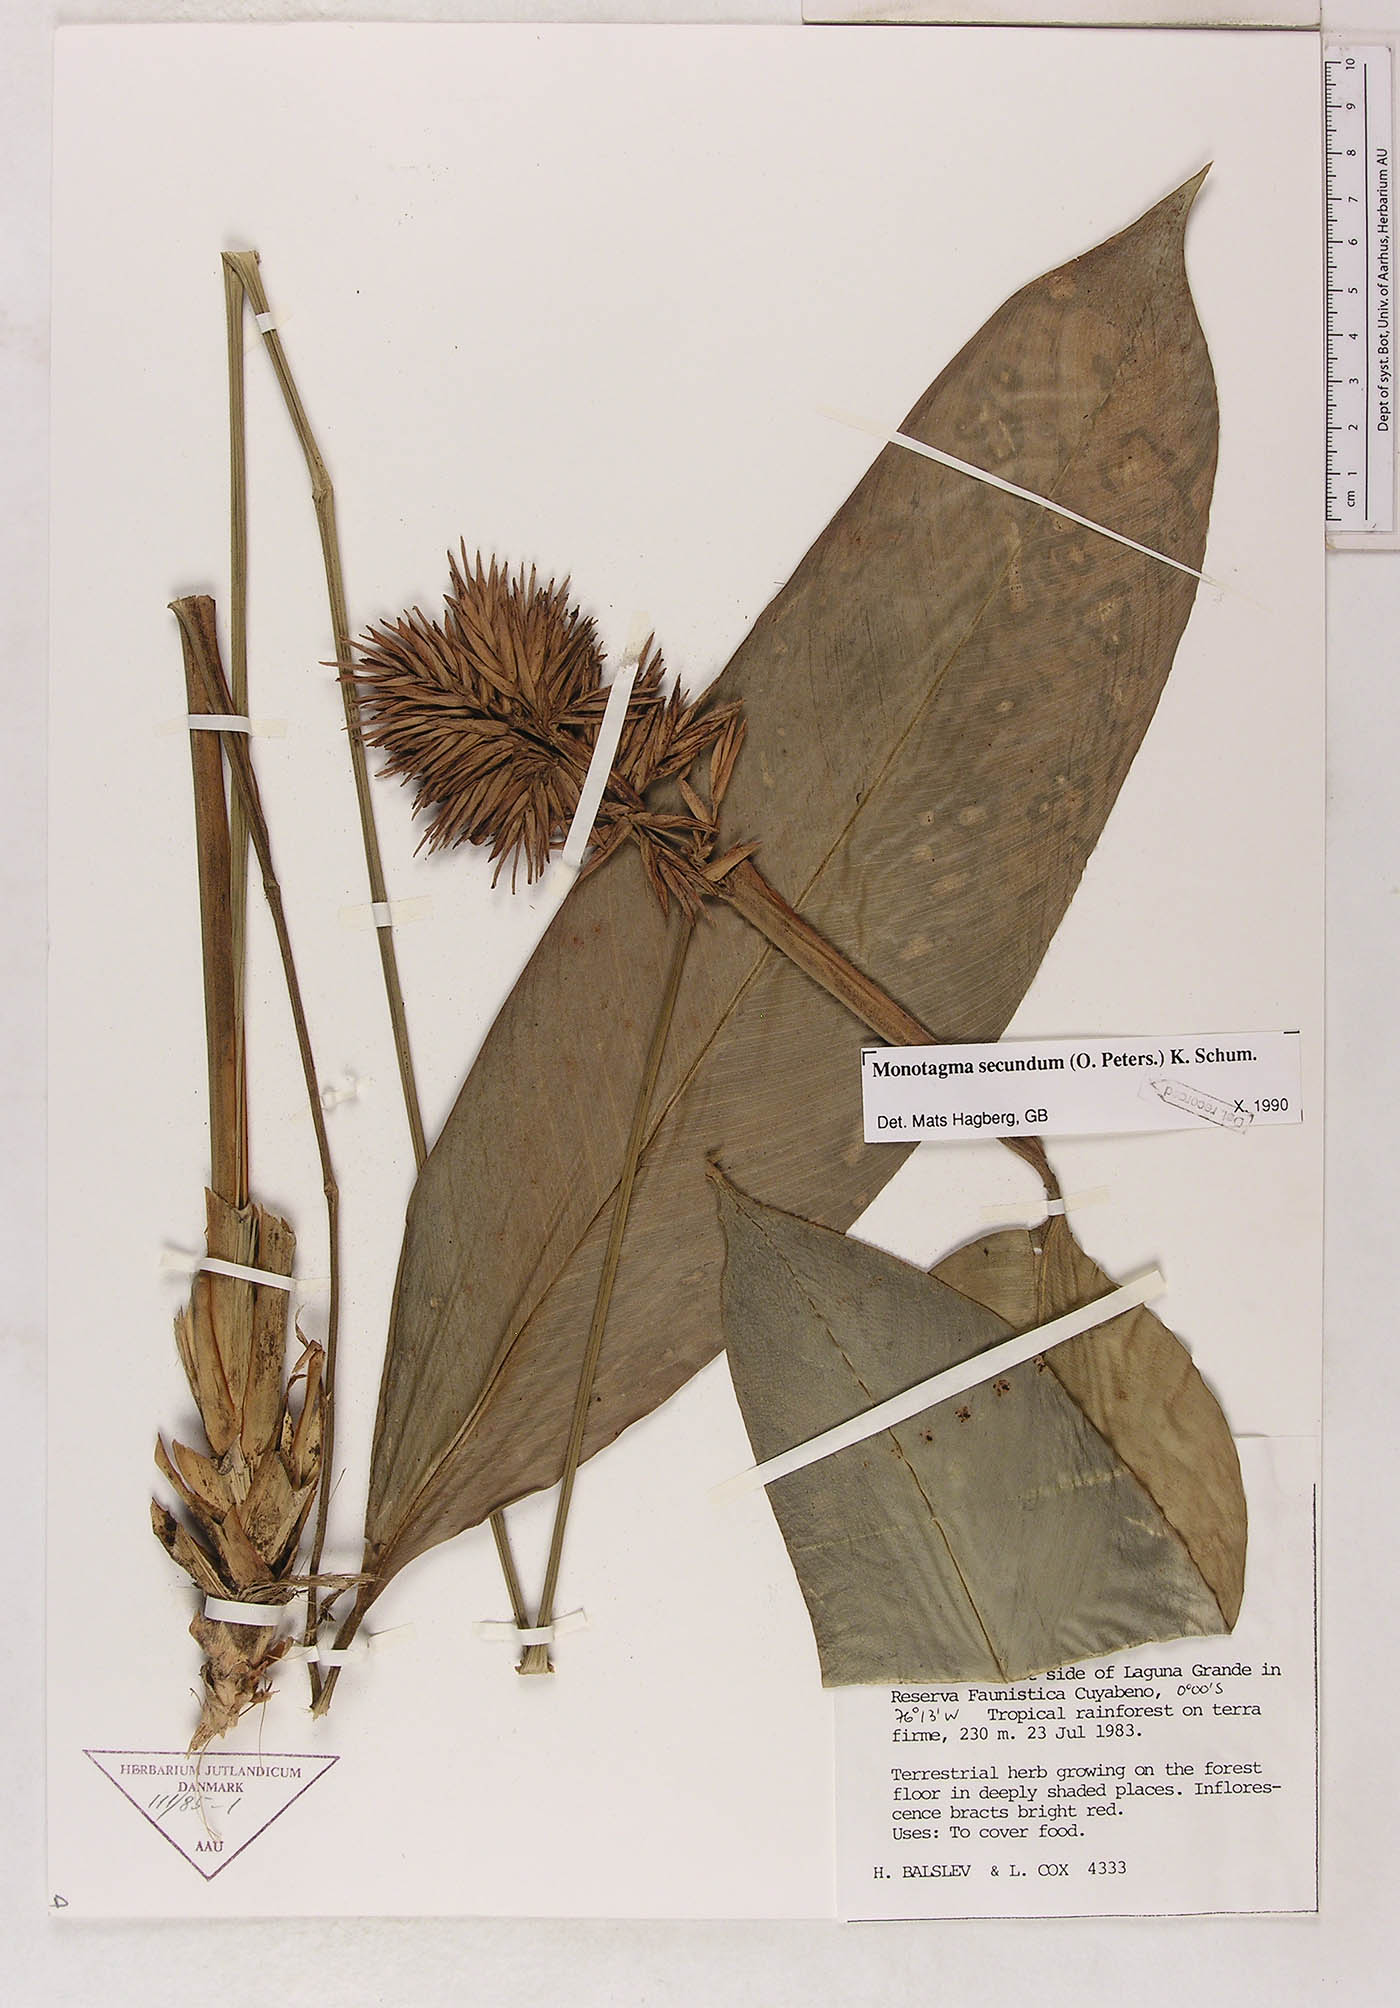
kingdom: Plantae
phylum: Tracheophyta
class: Liliopsida
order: Zingiberales
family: Marantaceae
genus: Monotagma
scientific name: Monotagma secundum
